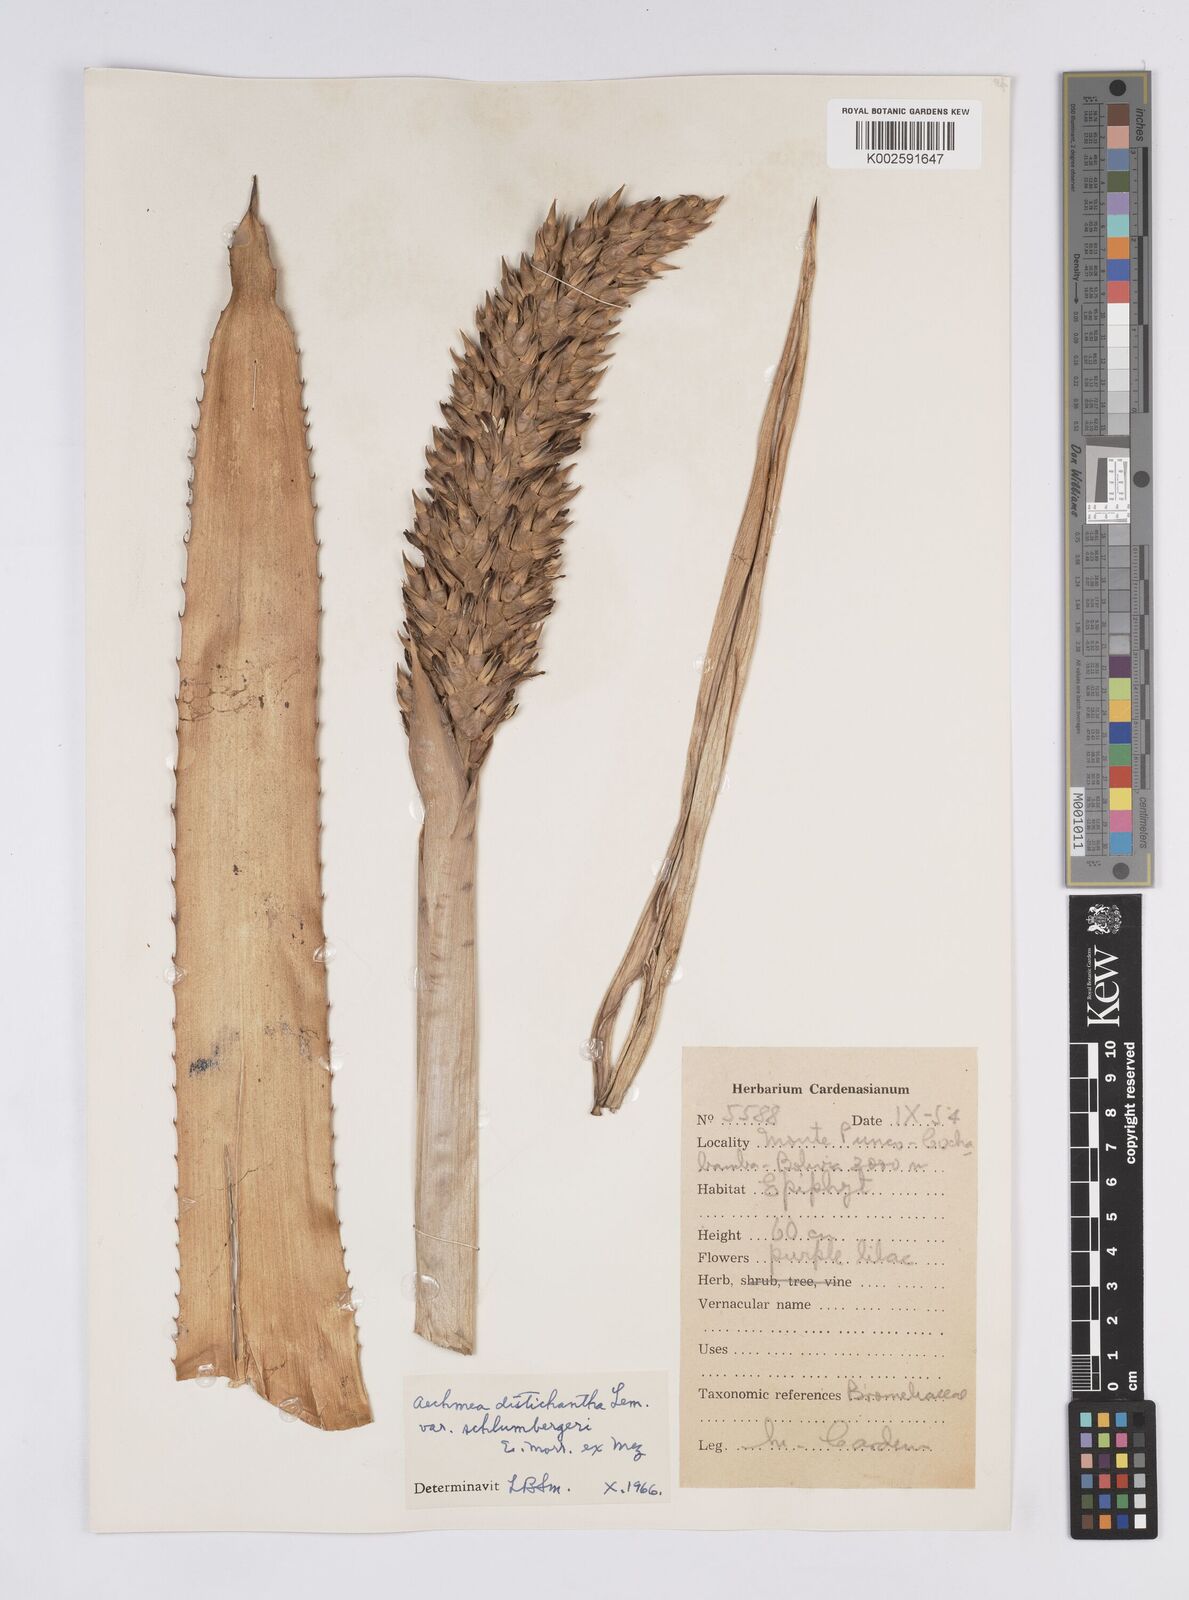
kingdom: Plantae
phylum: Tracheophyta
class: Liliopsida
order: Poales
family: Bromeliaceae
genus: Aechmea
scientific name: Aechmea distichantha
